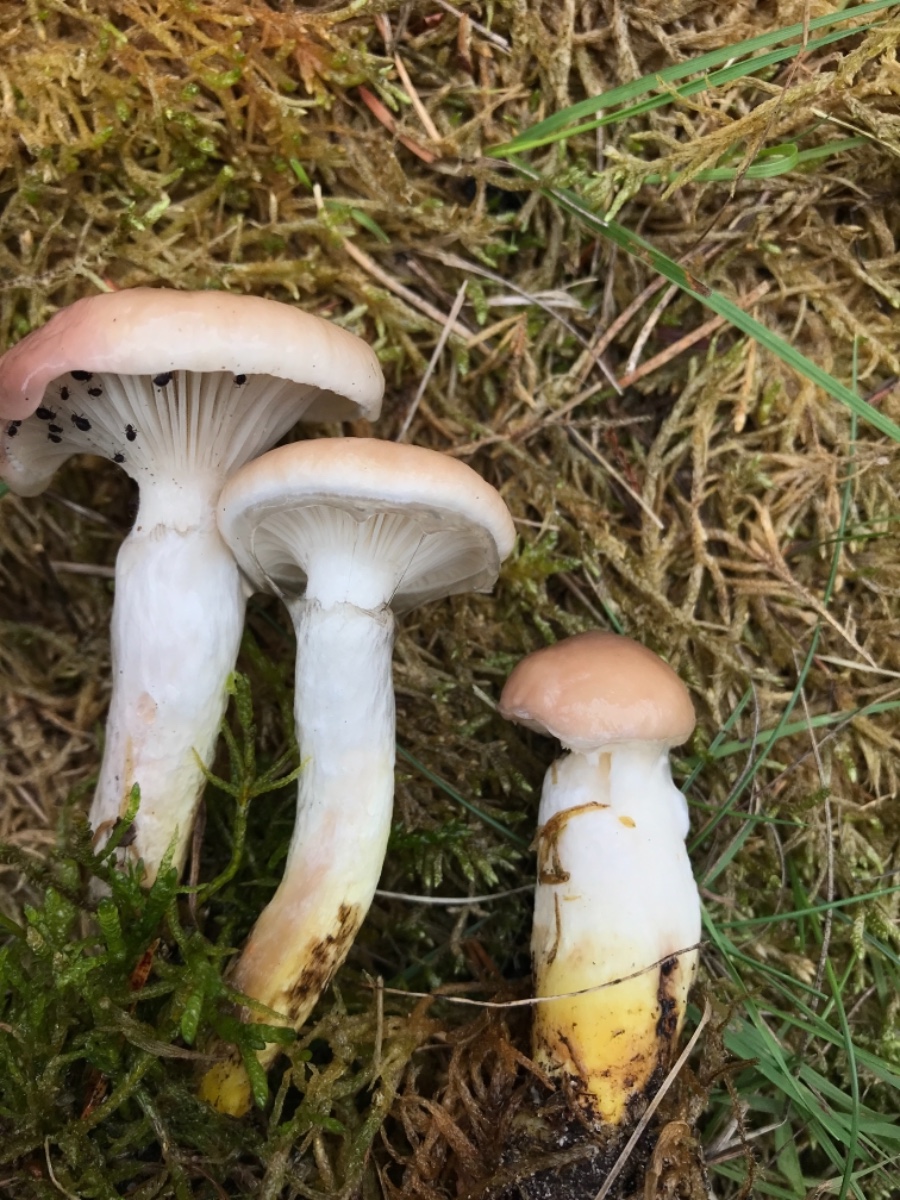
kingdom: Fungi
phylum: Basidiomycota
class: Agaricomycetes
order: Boletales
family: Gomphidiaceae
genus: Gomphidius
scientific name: Gomphidius glutinosus
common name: grå slimslør
